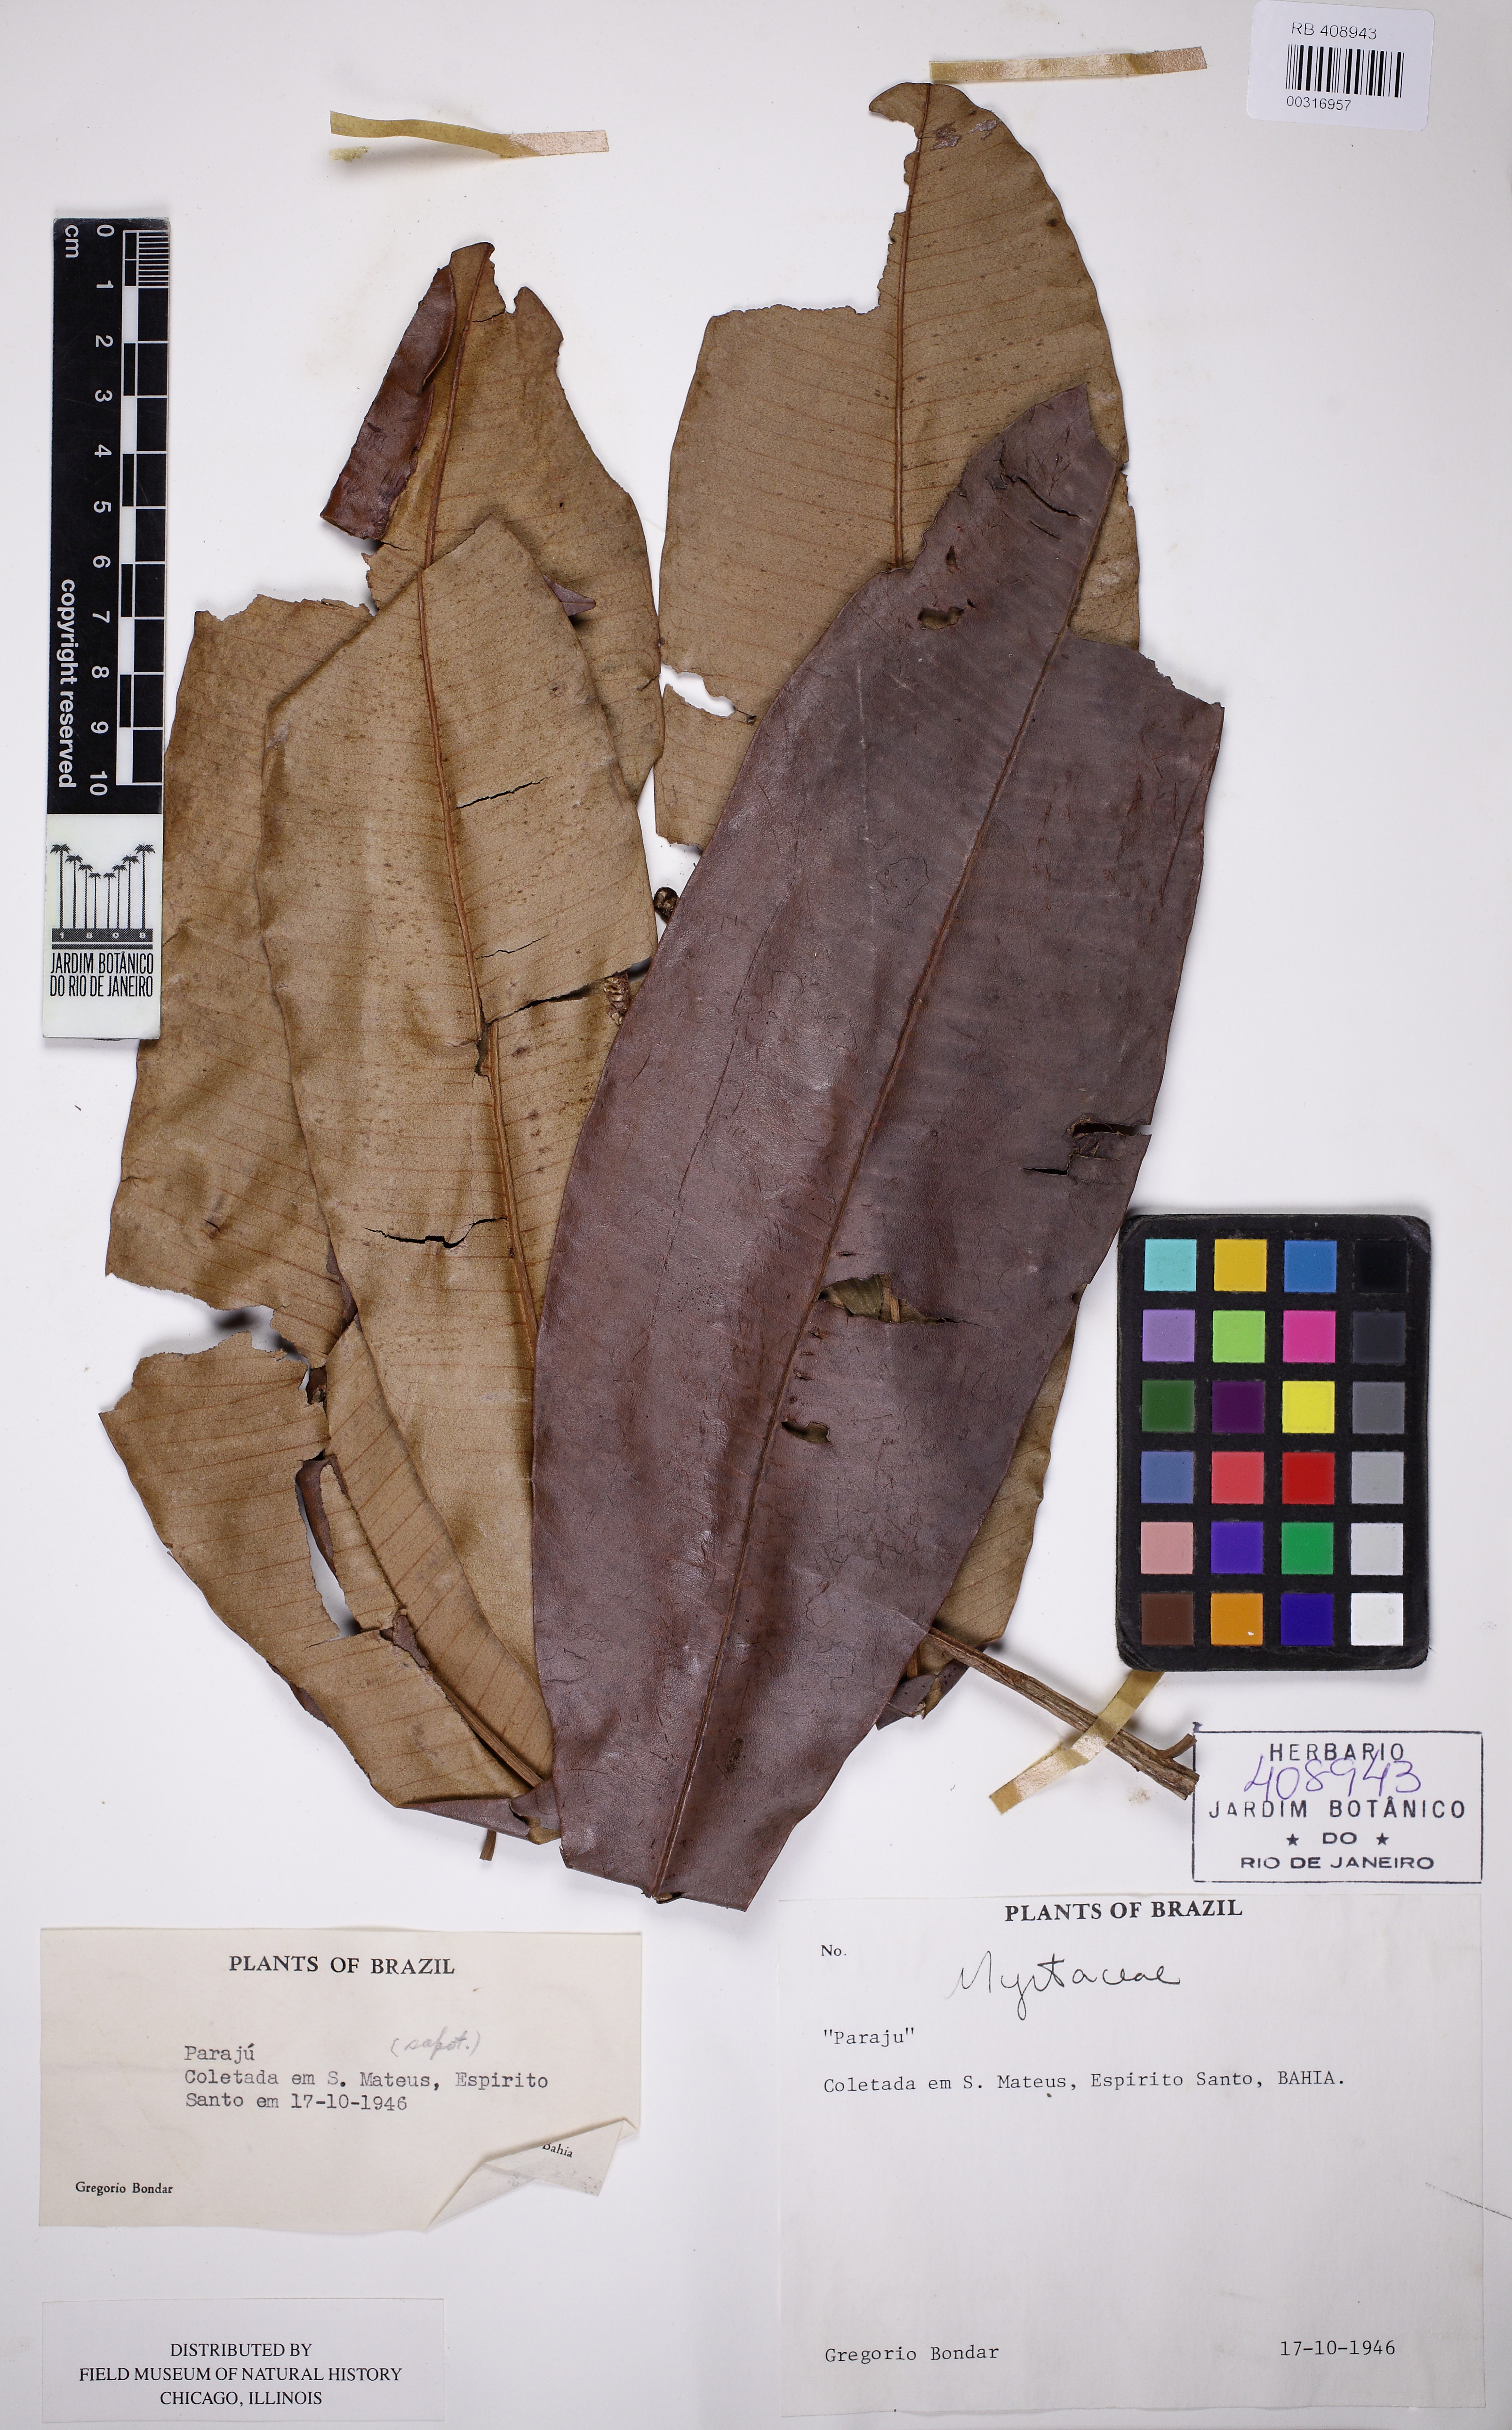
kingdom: Plantae
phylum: Tracheophyta
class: Magnoliopsida
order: Myrtales
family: Myrtaceae
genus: Myrcia
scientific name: Myrcia teuscheriana
